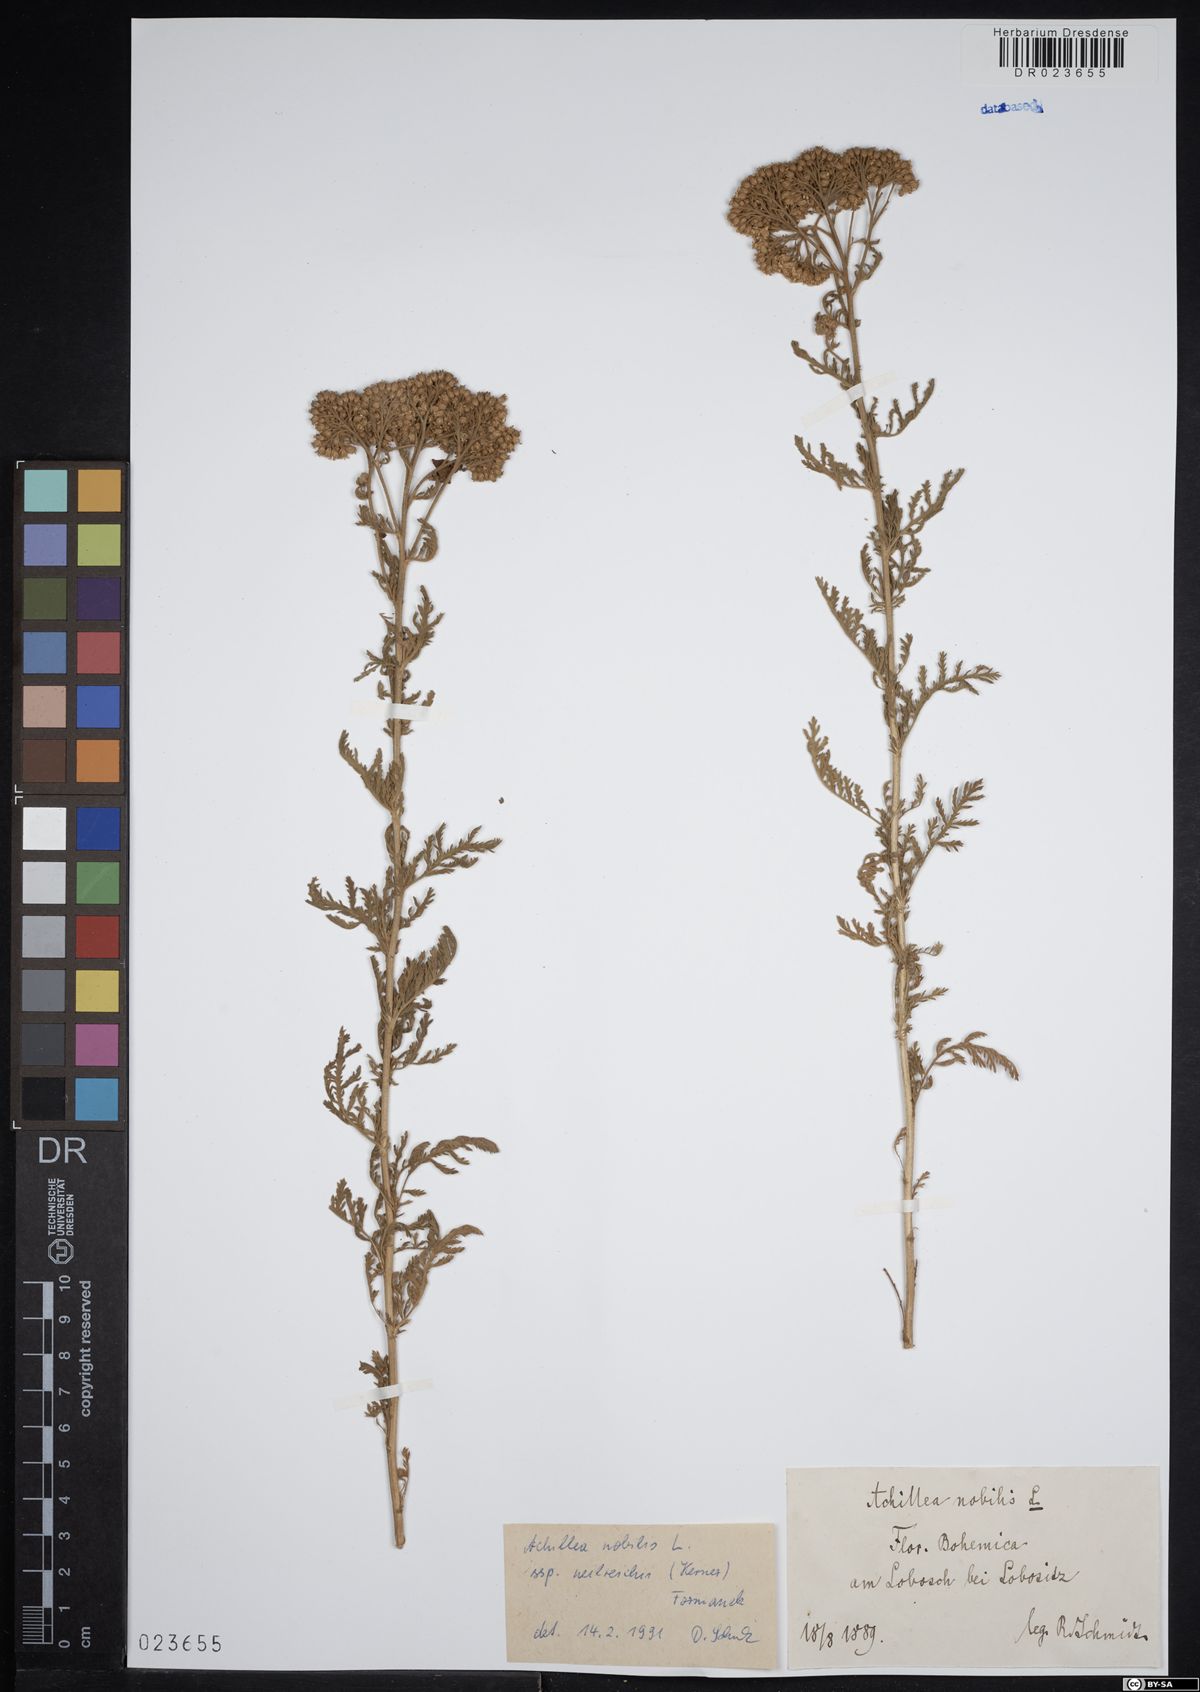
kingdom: Plantae
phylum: Tracheophyta
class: Magnoliopsida
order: Asterales
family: Asteraceae
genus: Achillea
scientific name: Achillea nobilis
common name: Noble yarrow
